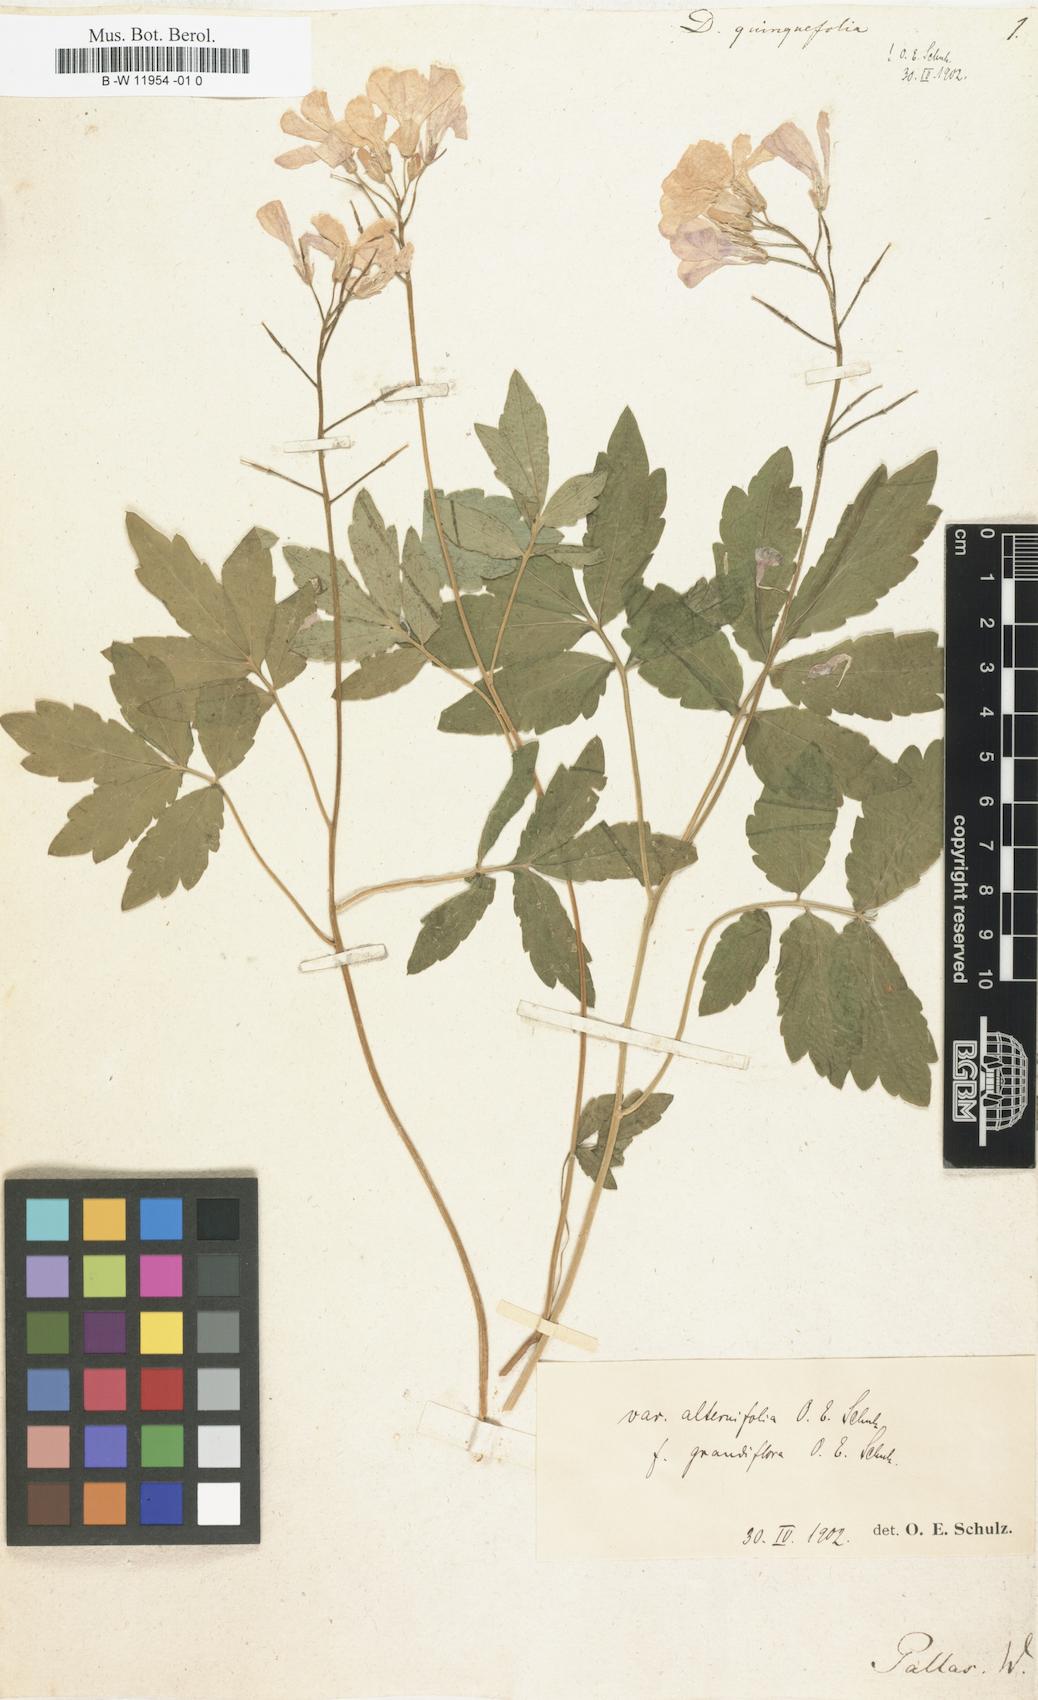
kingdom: Plantae
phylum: Tracheophyta
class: Magnoliopsida
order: Brassicales
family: Brassicaceae
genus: Cardamine
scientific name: Cardamine quinquefolia
